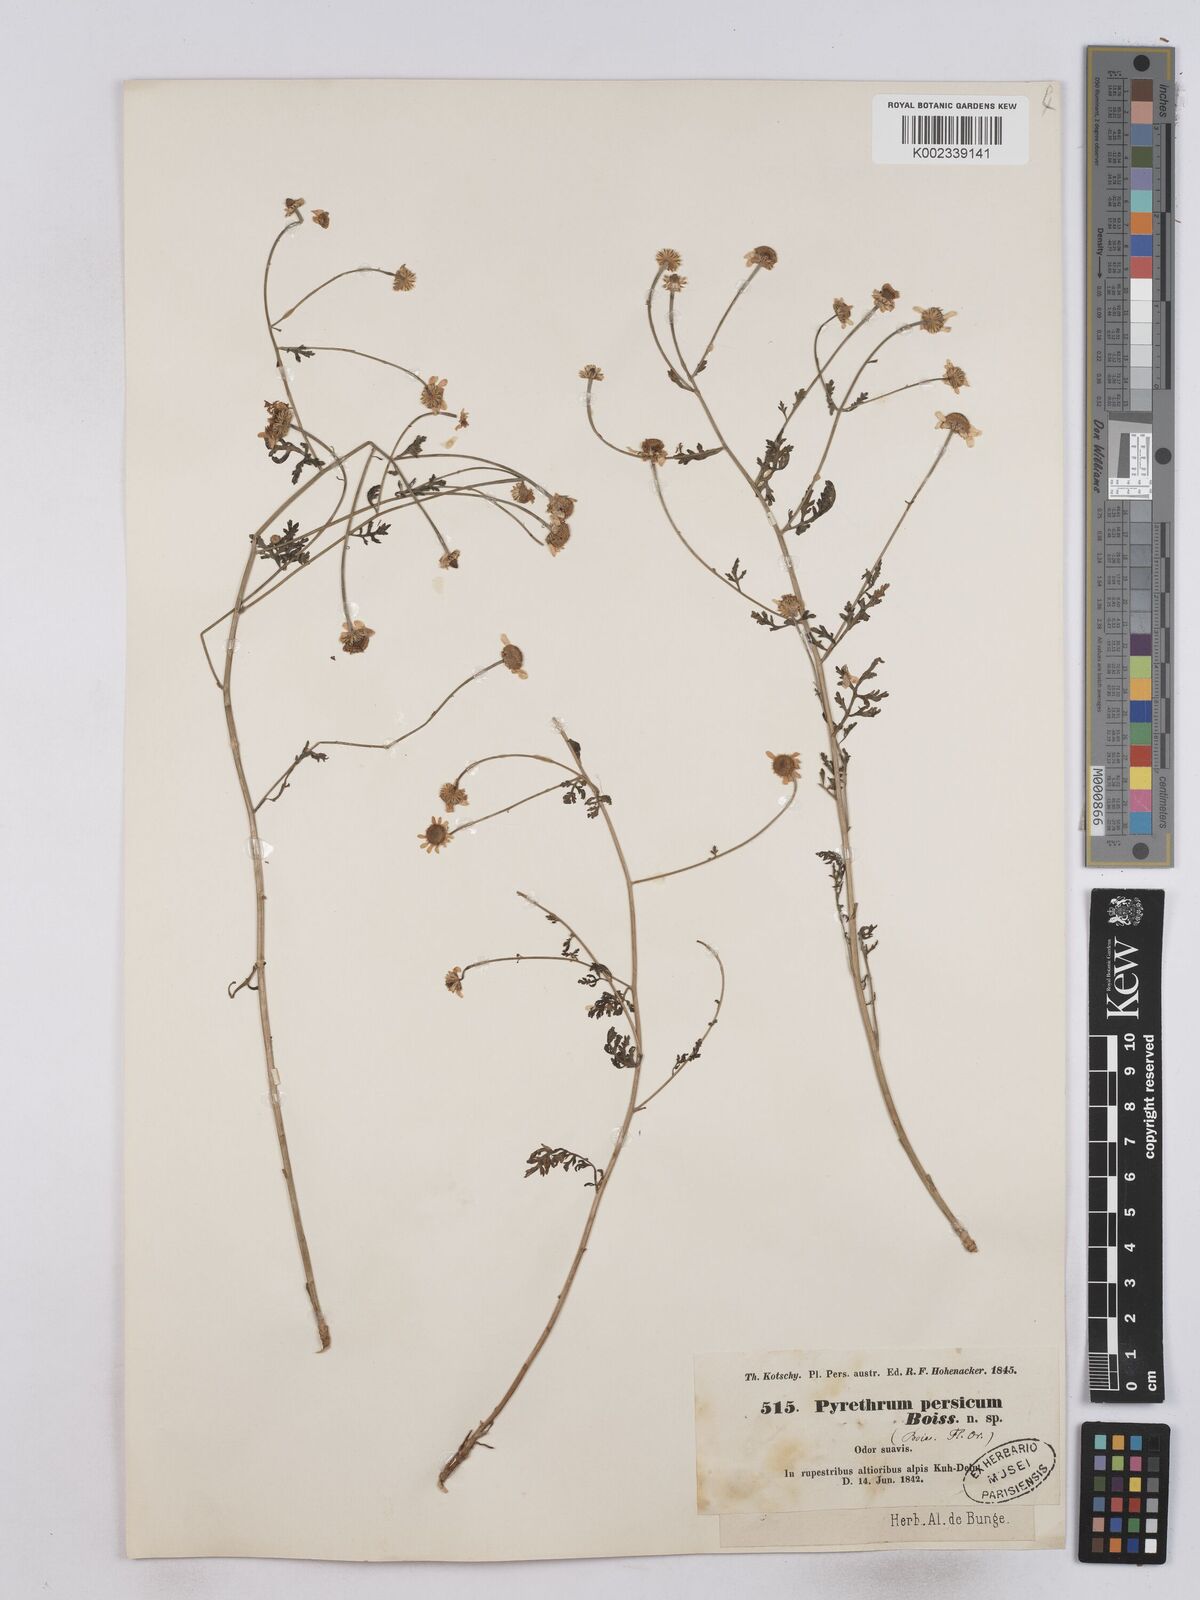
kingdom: Plantae
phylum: Tracheophyta
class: Magnoliopsida
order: Asterales
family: Asteraceae
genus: Tanacetum
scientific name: Tanacetum partheniifolium
